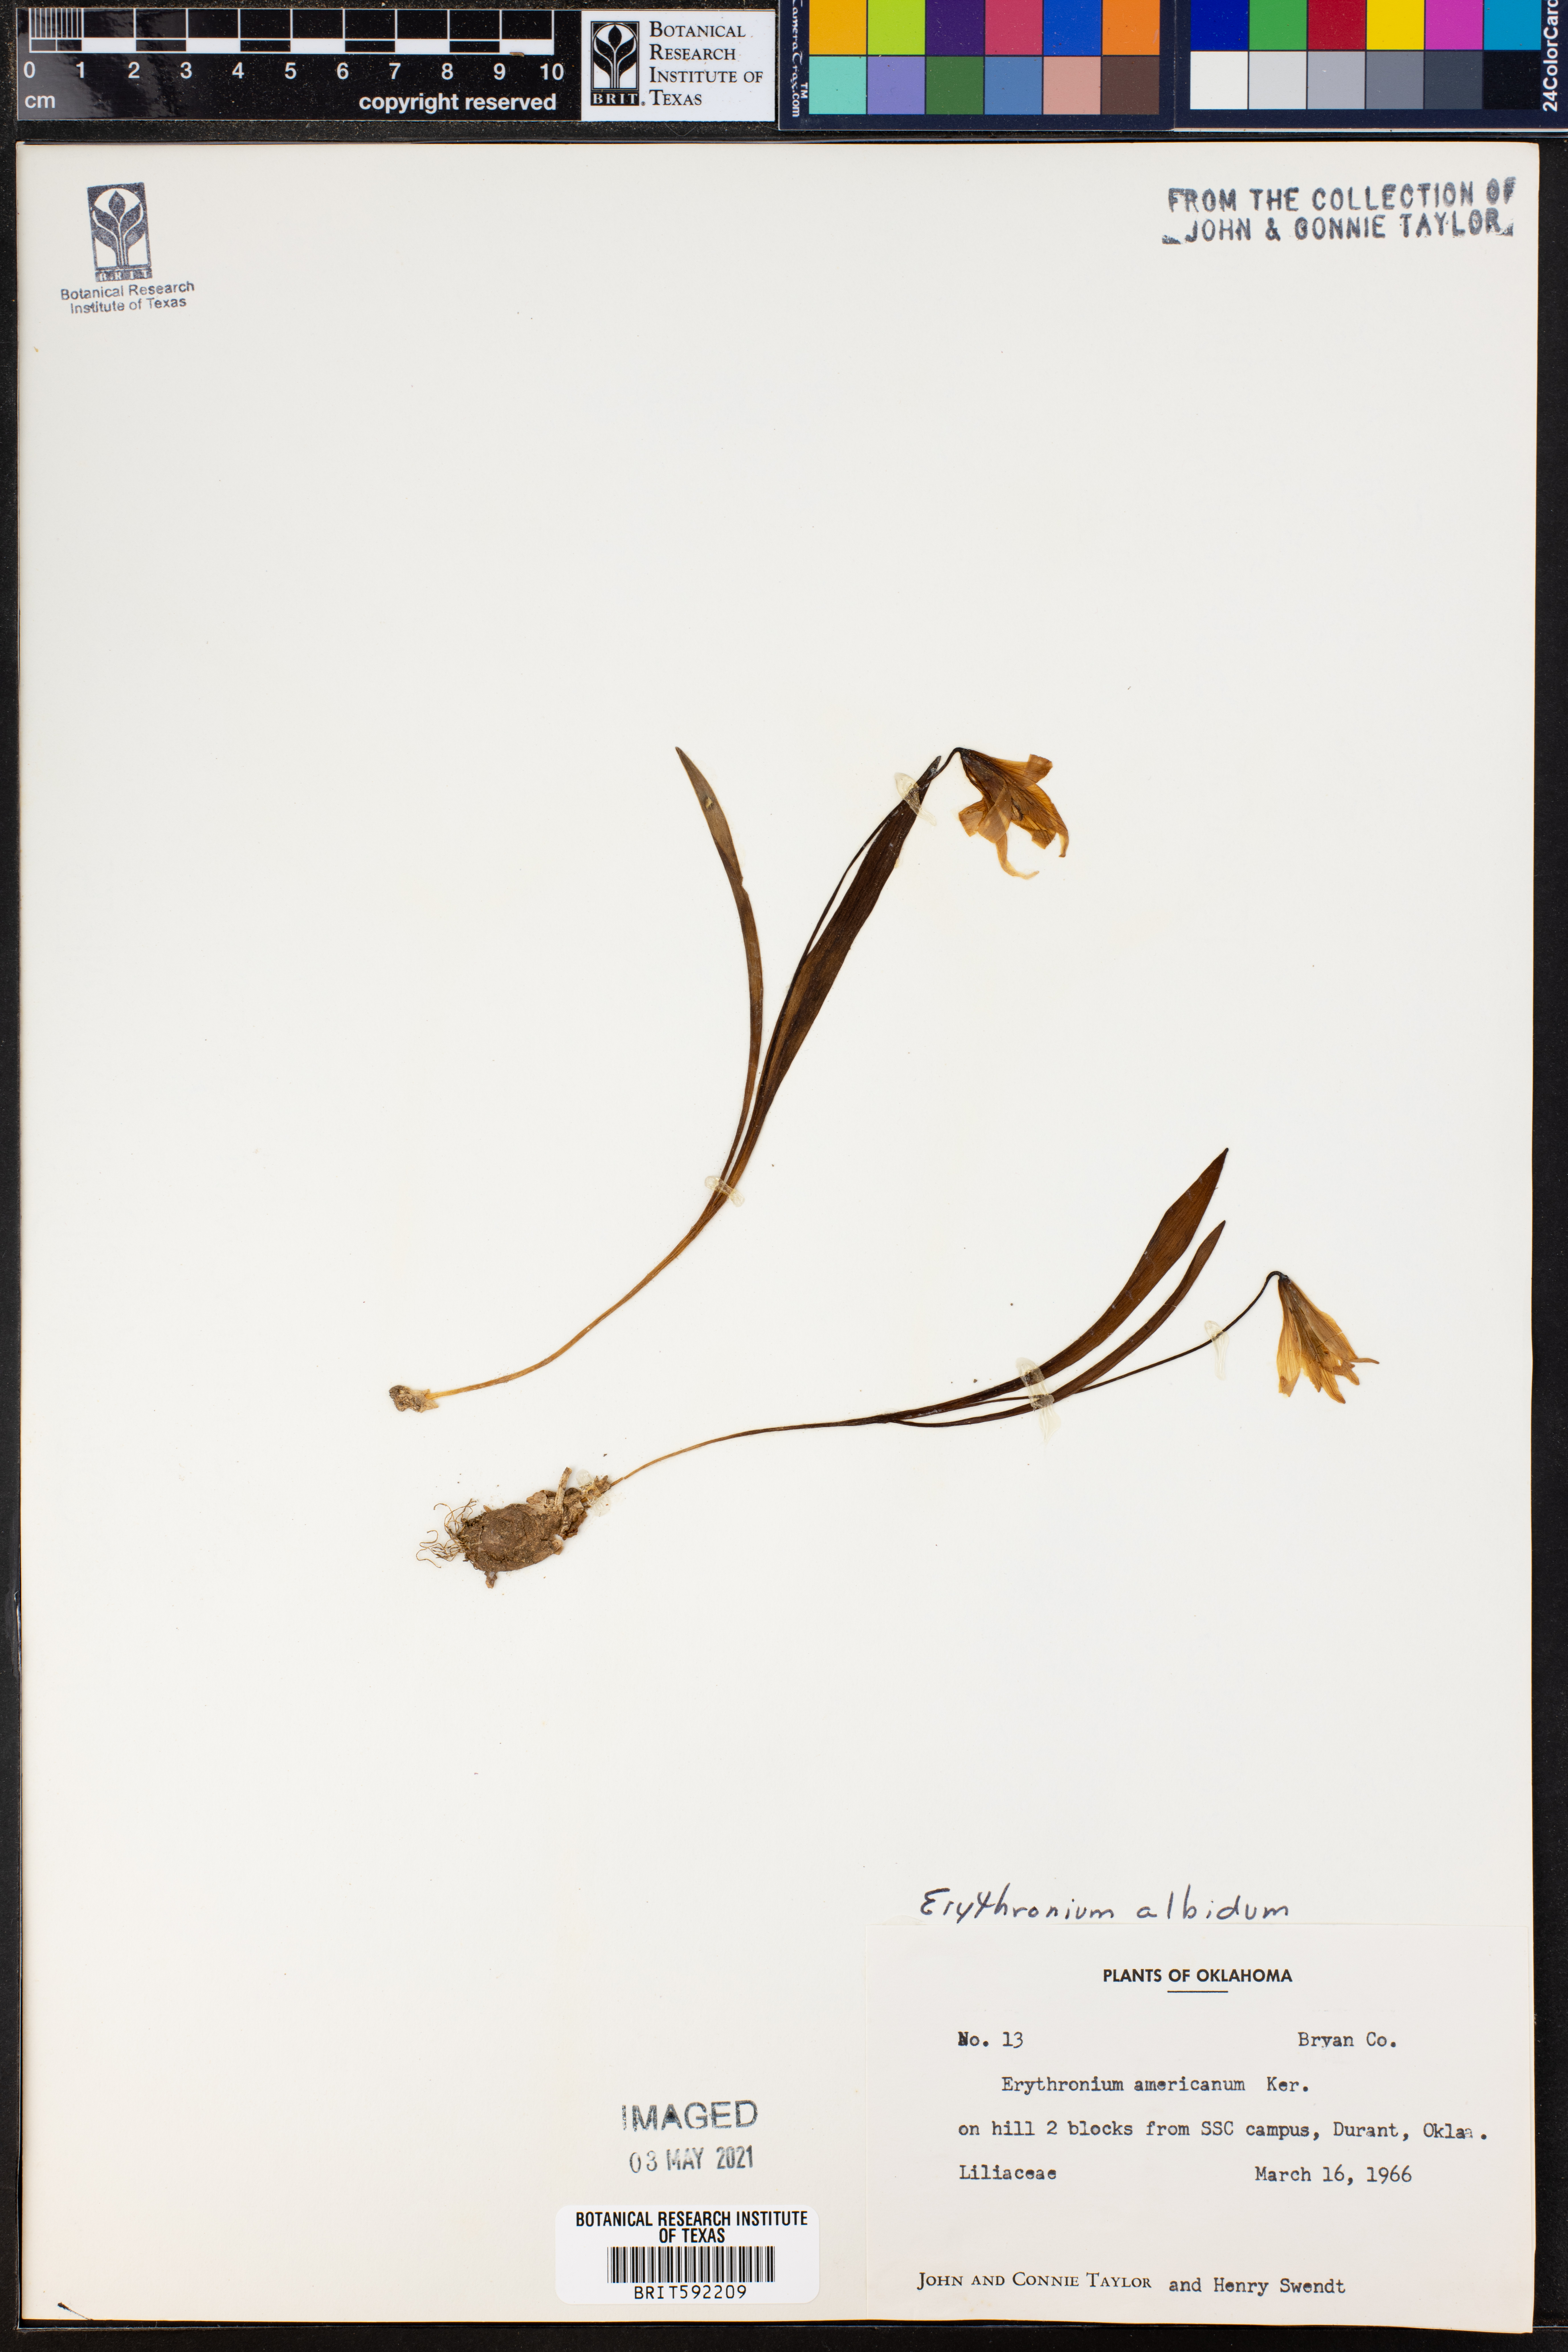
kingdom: Plantae
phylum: Tracheophyta
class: Liliopsida
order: Liliales
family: Liliaceae
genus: Erythronium
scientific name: Erythronium albidum
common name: White trout-lily
